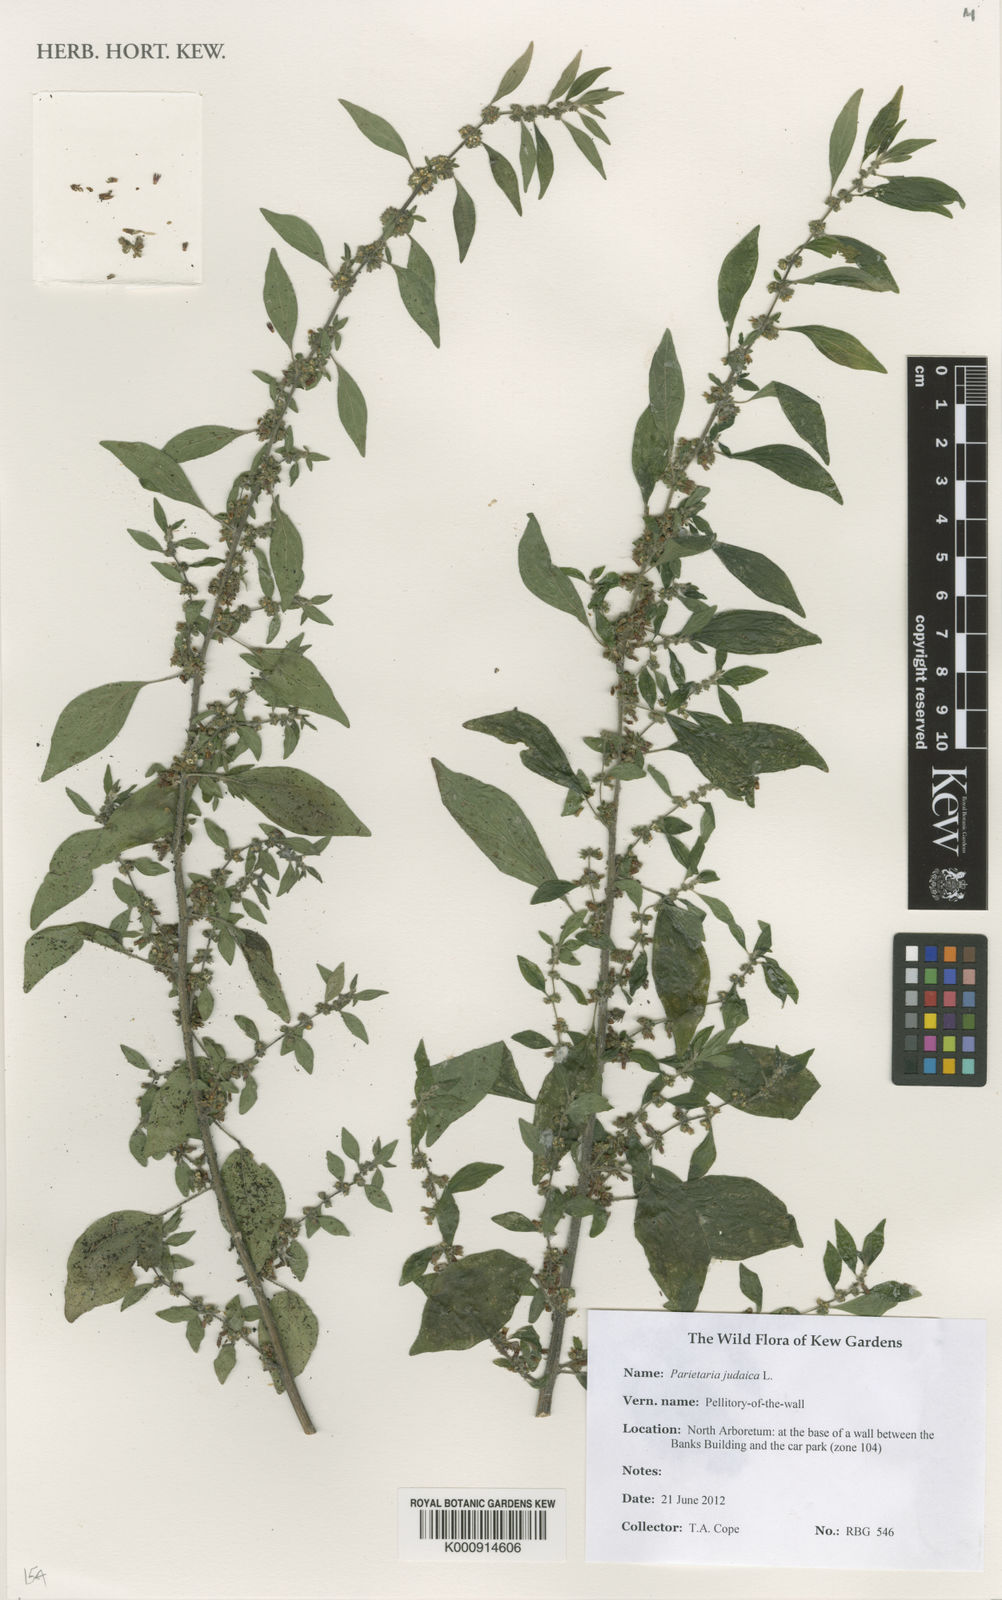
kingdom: Plantae
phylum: Tracheophyta
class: Magnoliopsida
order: Rosales
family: Urticaceae
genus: Parietaria
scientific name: Parietaria judaica
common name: Pellitory-of-the-wall
